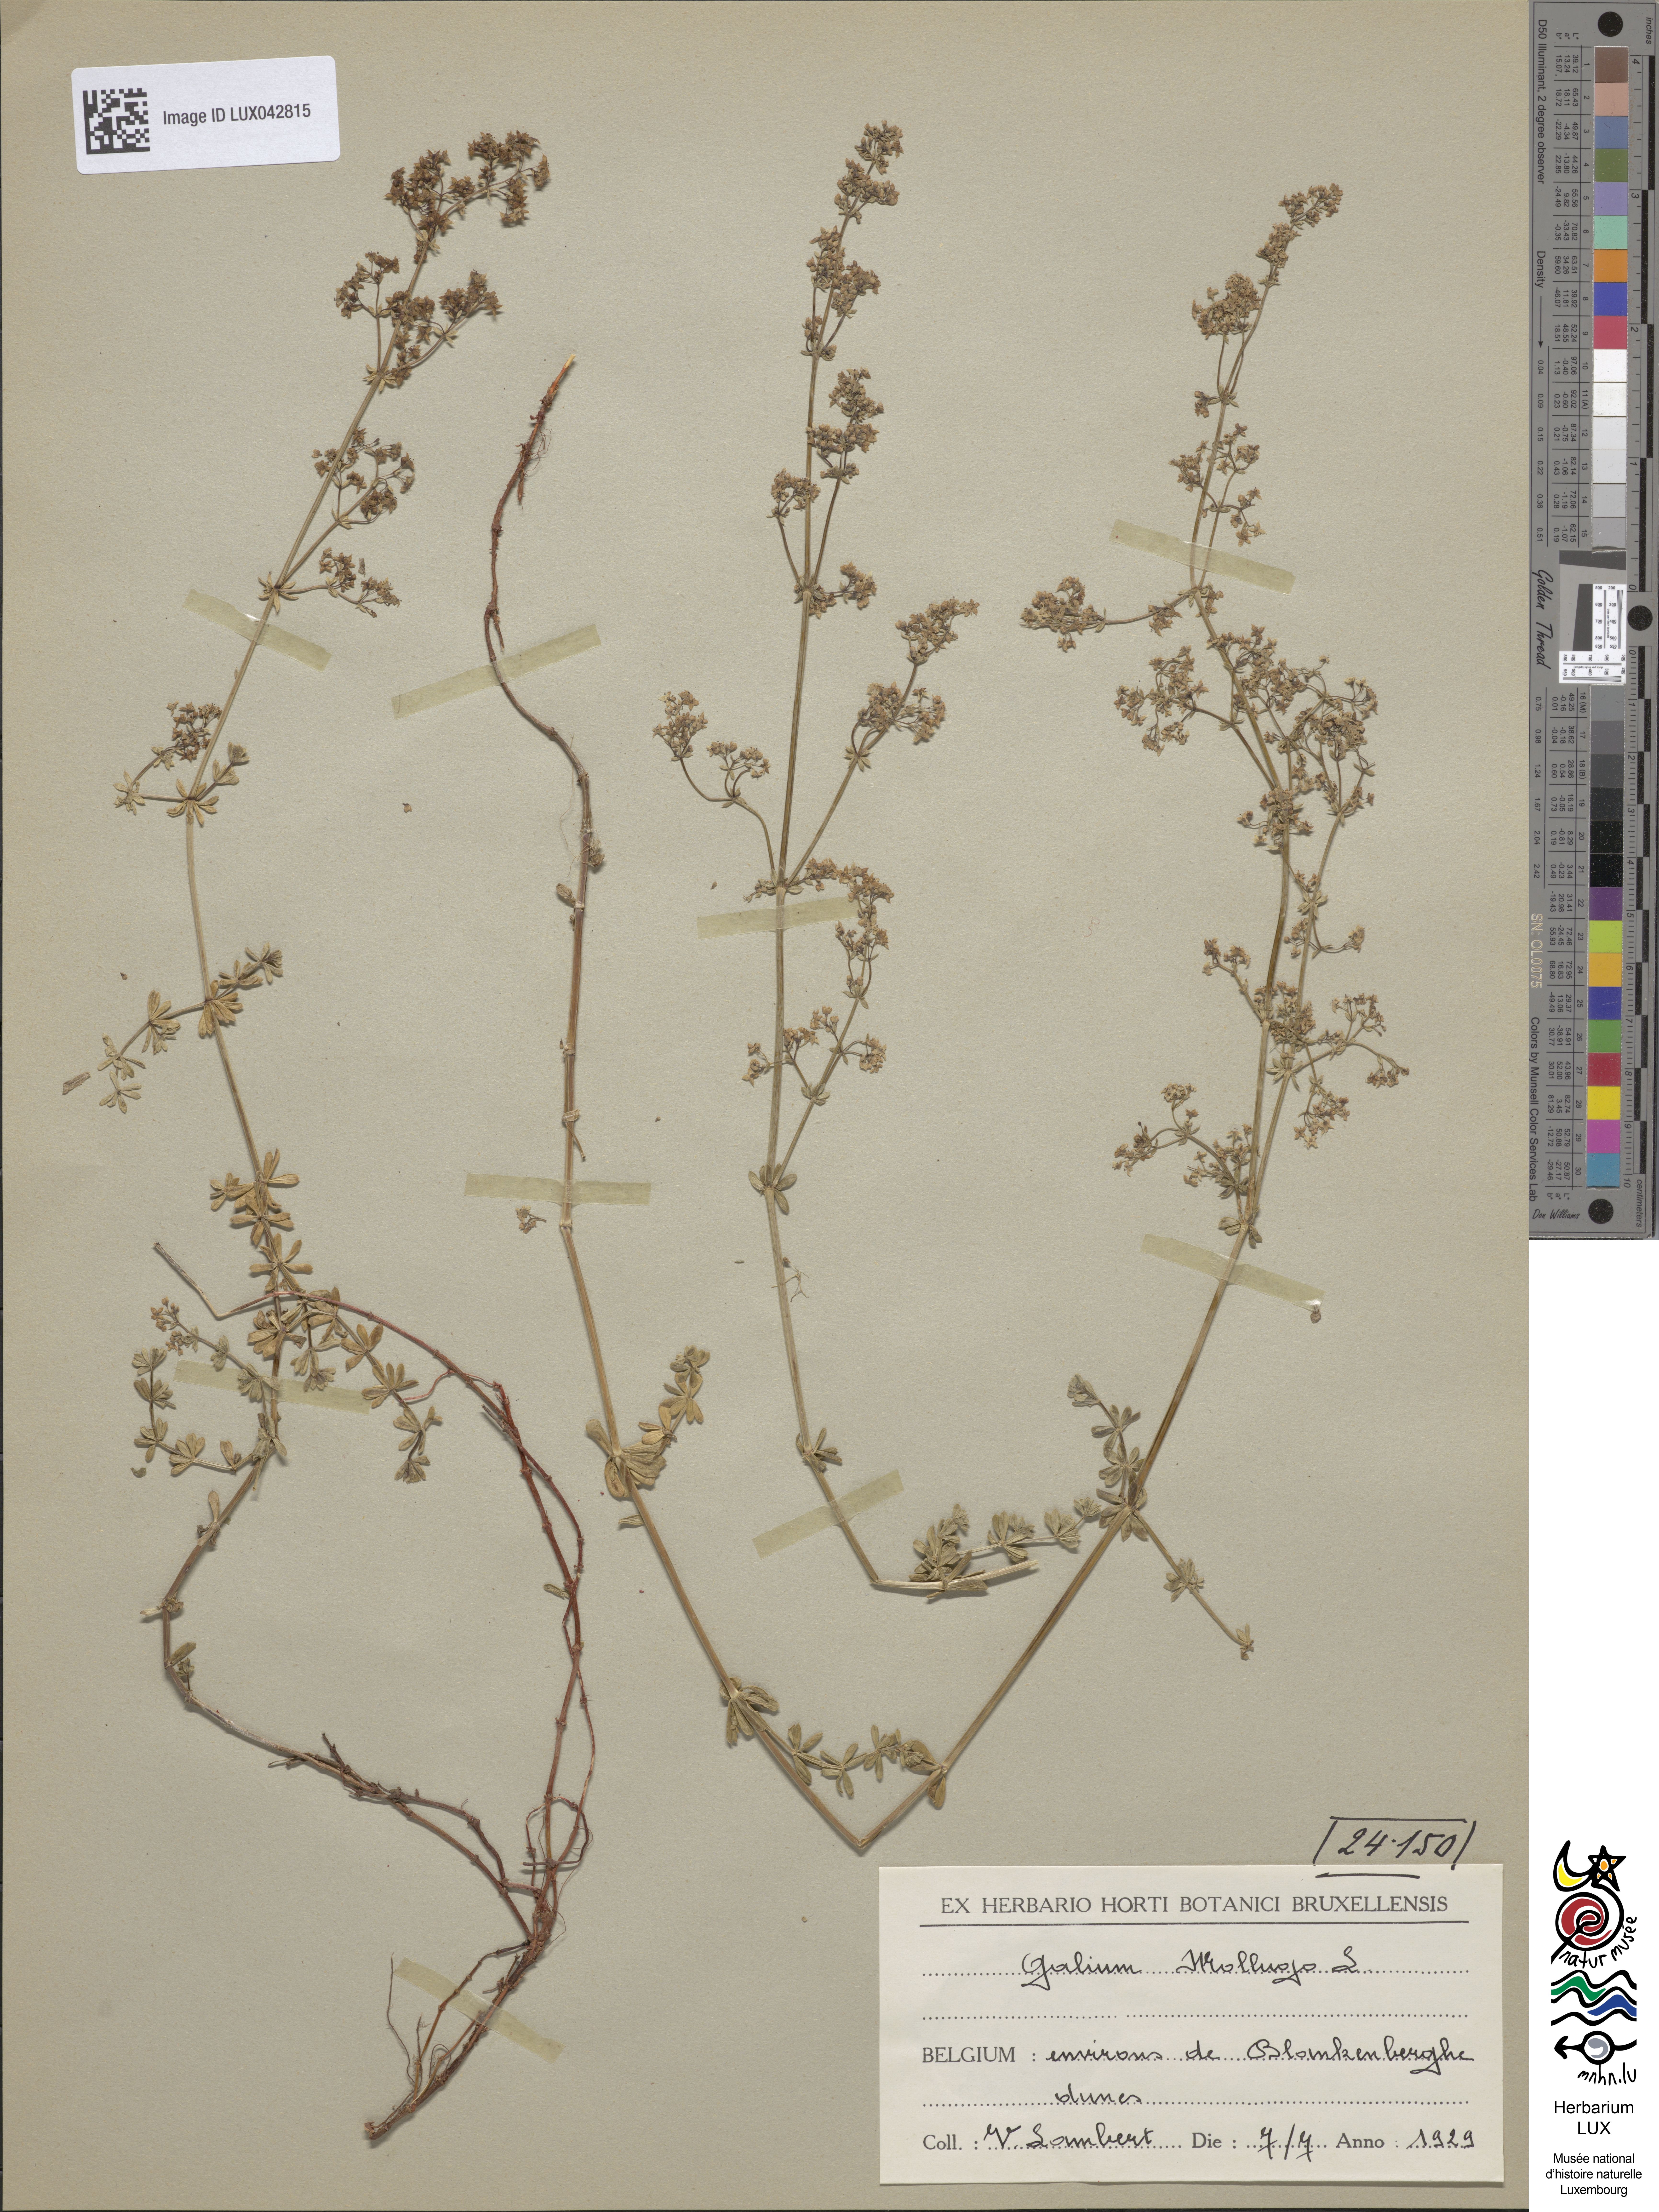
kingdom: Plantae
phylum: Tracheophyta
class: Magnoliopsida
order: Gentianales
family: Rubiaceae
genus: Galium
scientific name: Galium mollugo
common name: Hedge bedstraw
